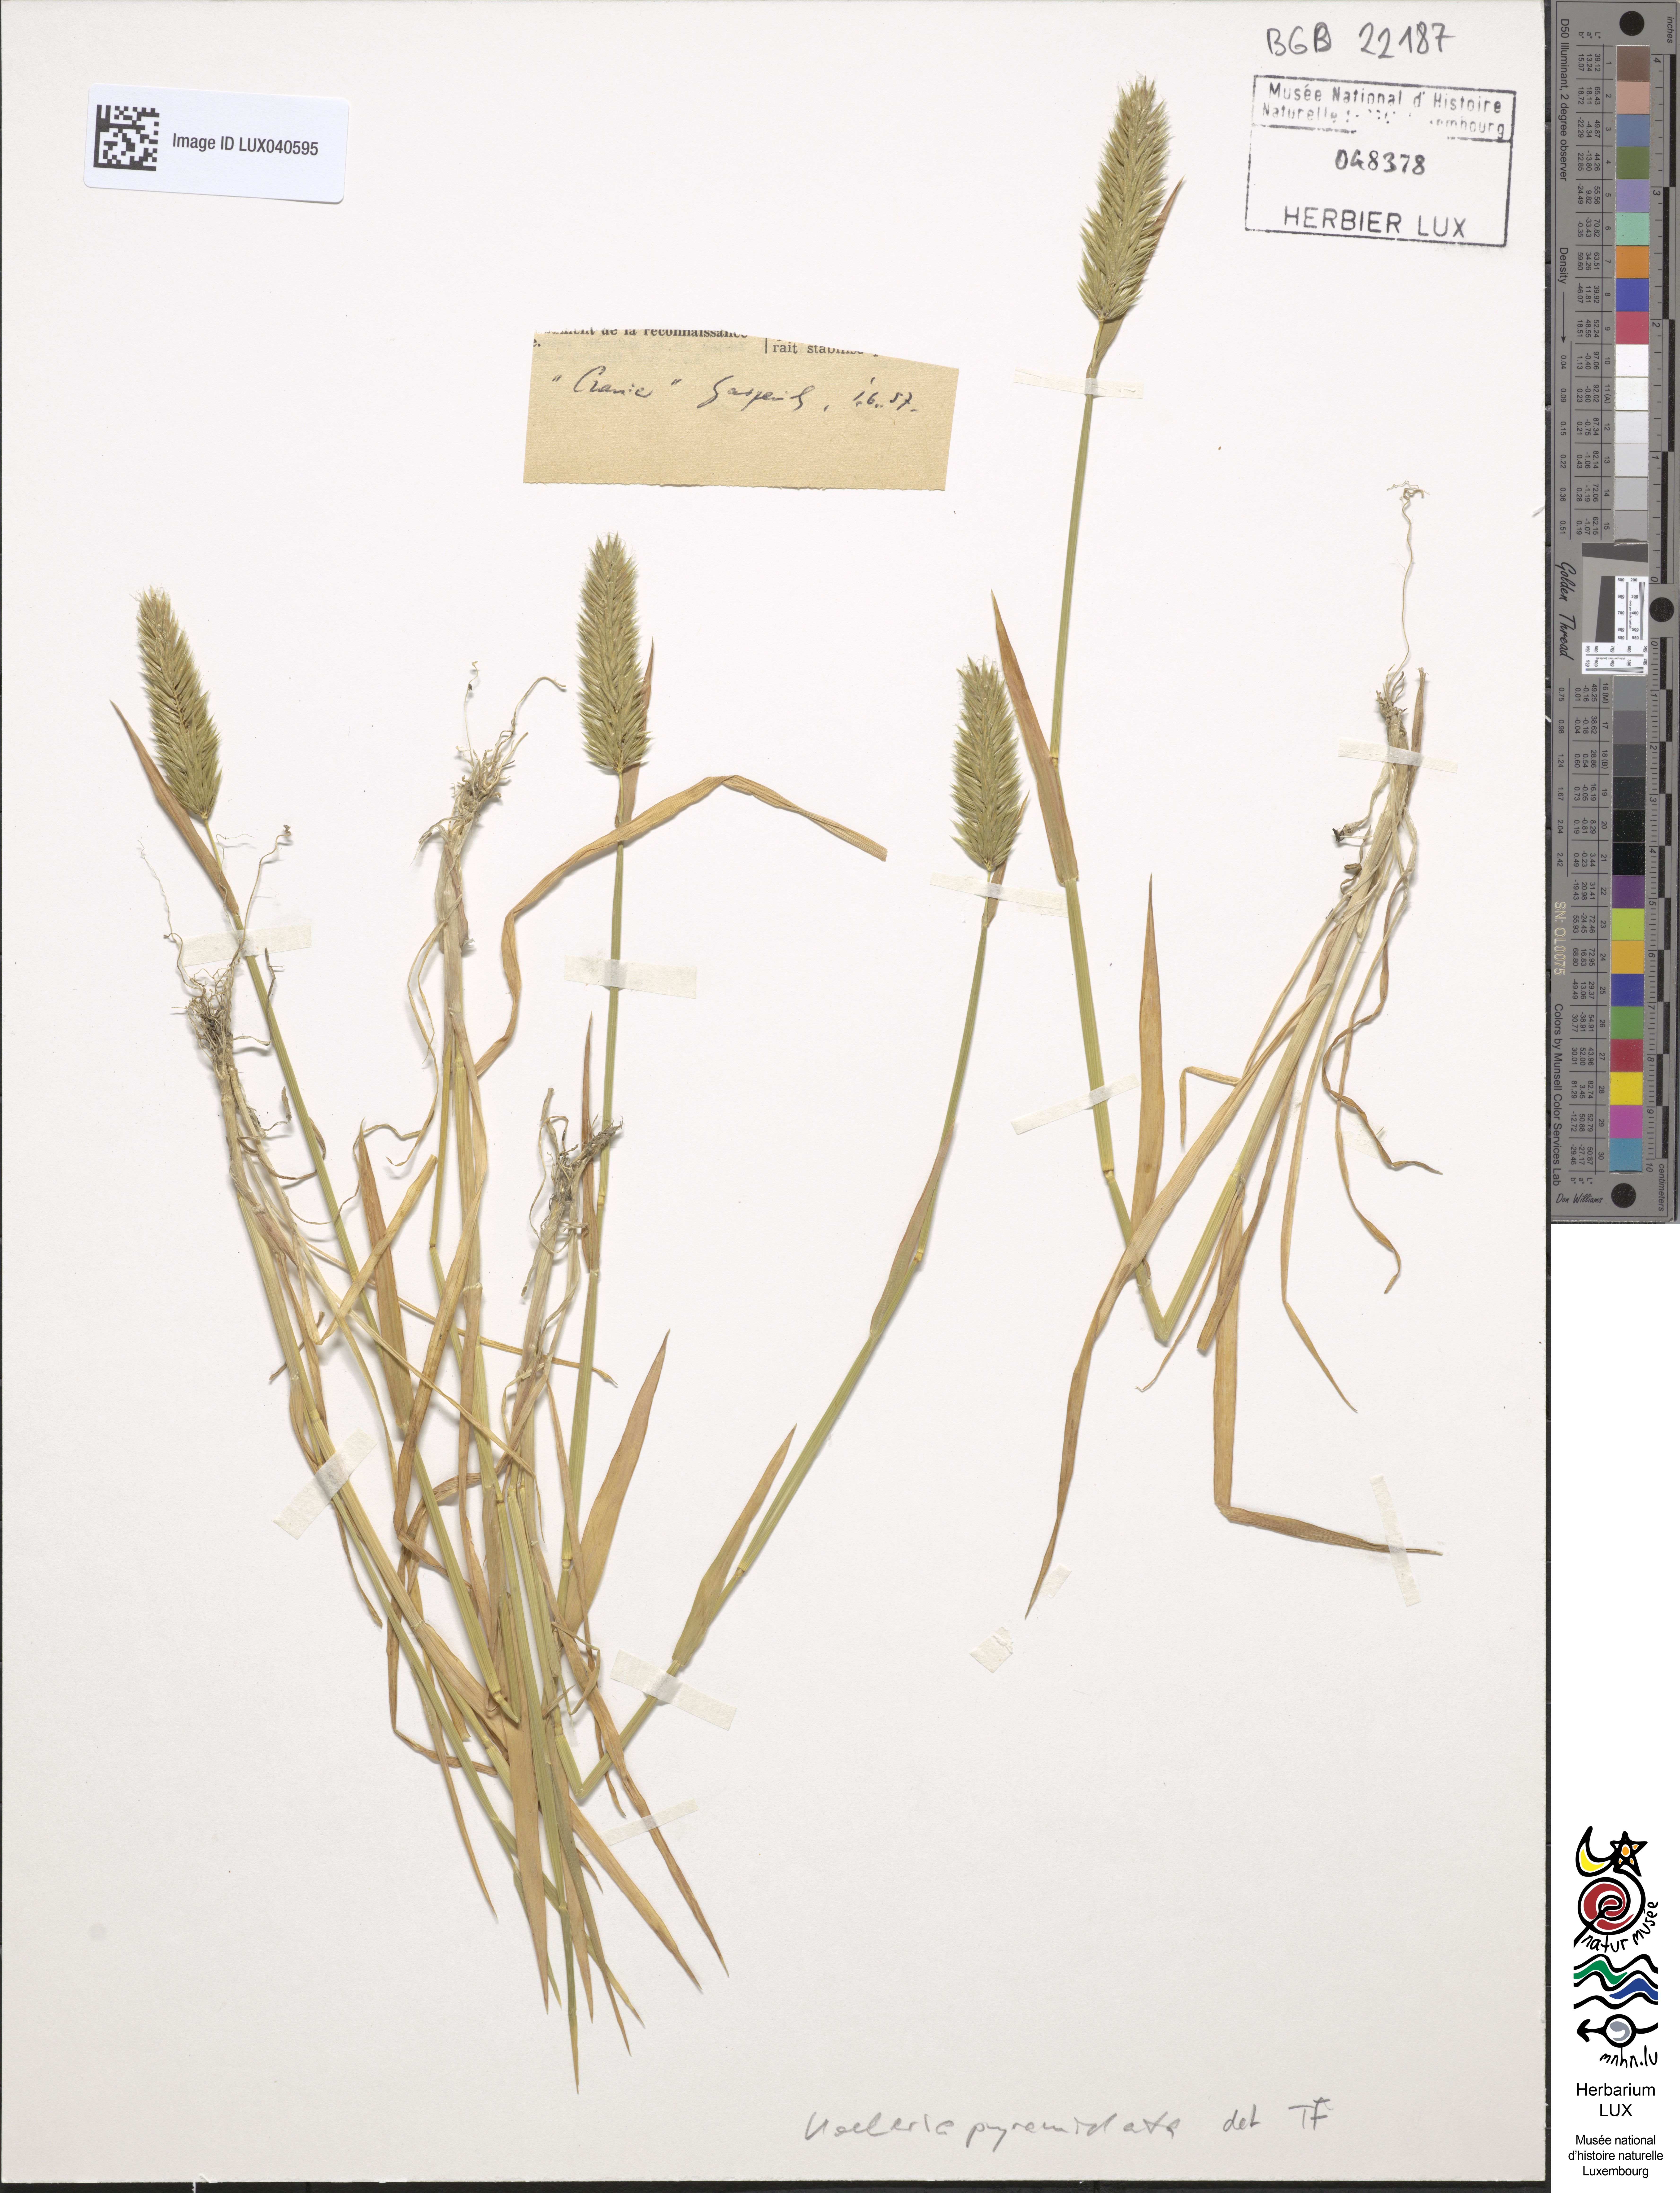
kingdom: Plantae
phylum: Tracheophyta
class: Liliopsida
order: Poales
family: Poaceae
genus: Koeleria
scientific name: Koeleria pyramidata
